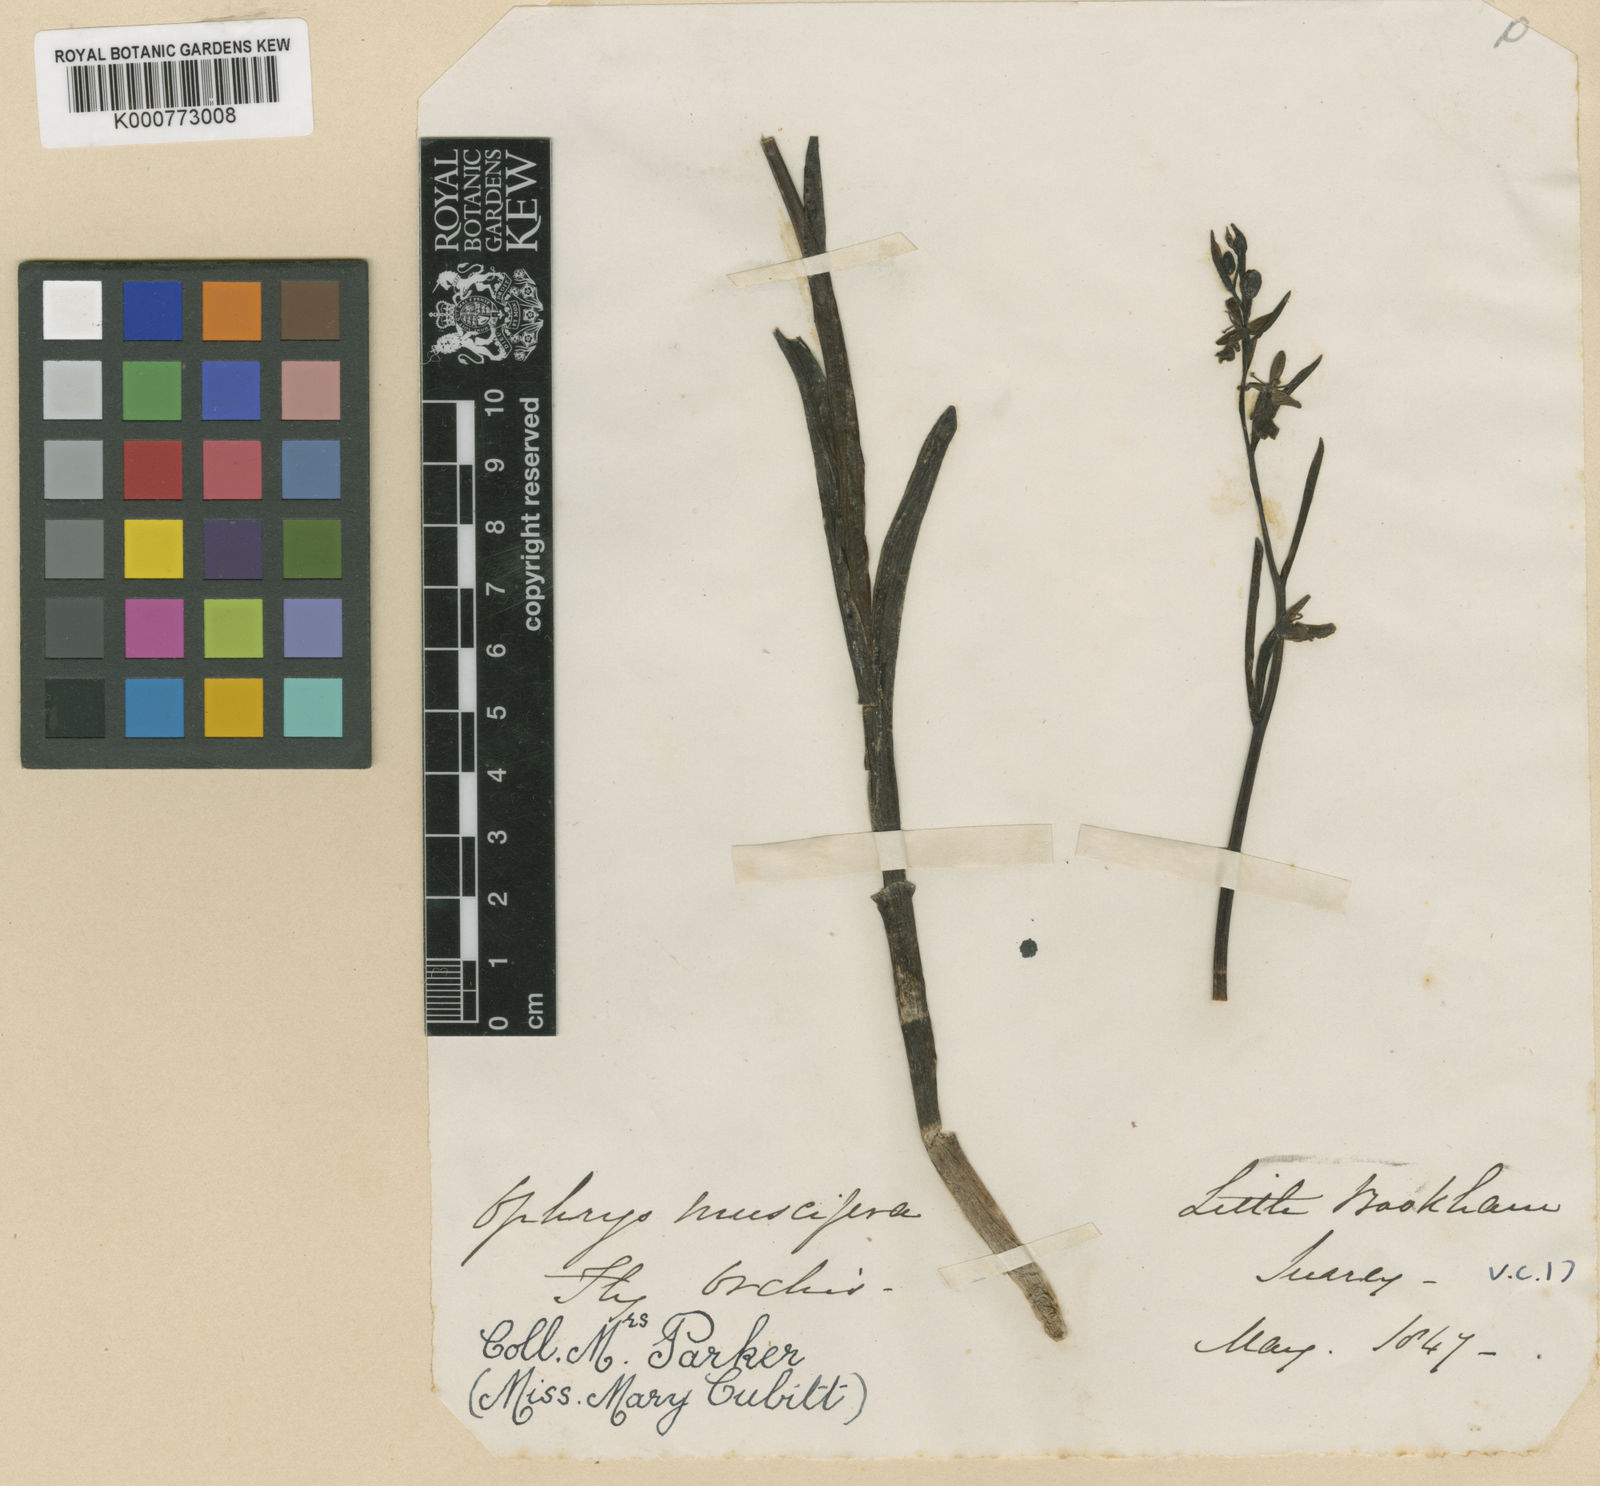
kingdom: Plantae
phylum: Tracheophyta
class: Liliopsida
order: Asparagales
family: Orchidaceae
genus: Ophrys
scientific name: Ophrys insectifera
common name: Fly orchid
